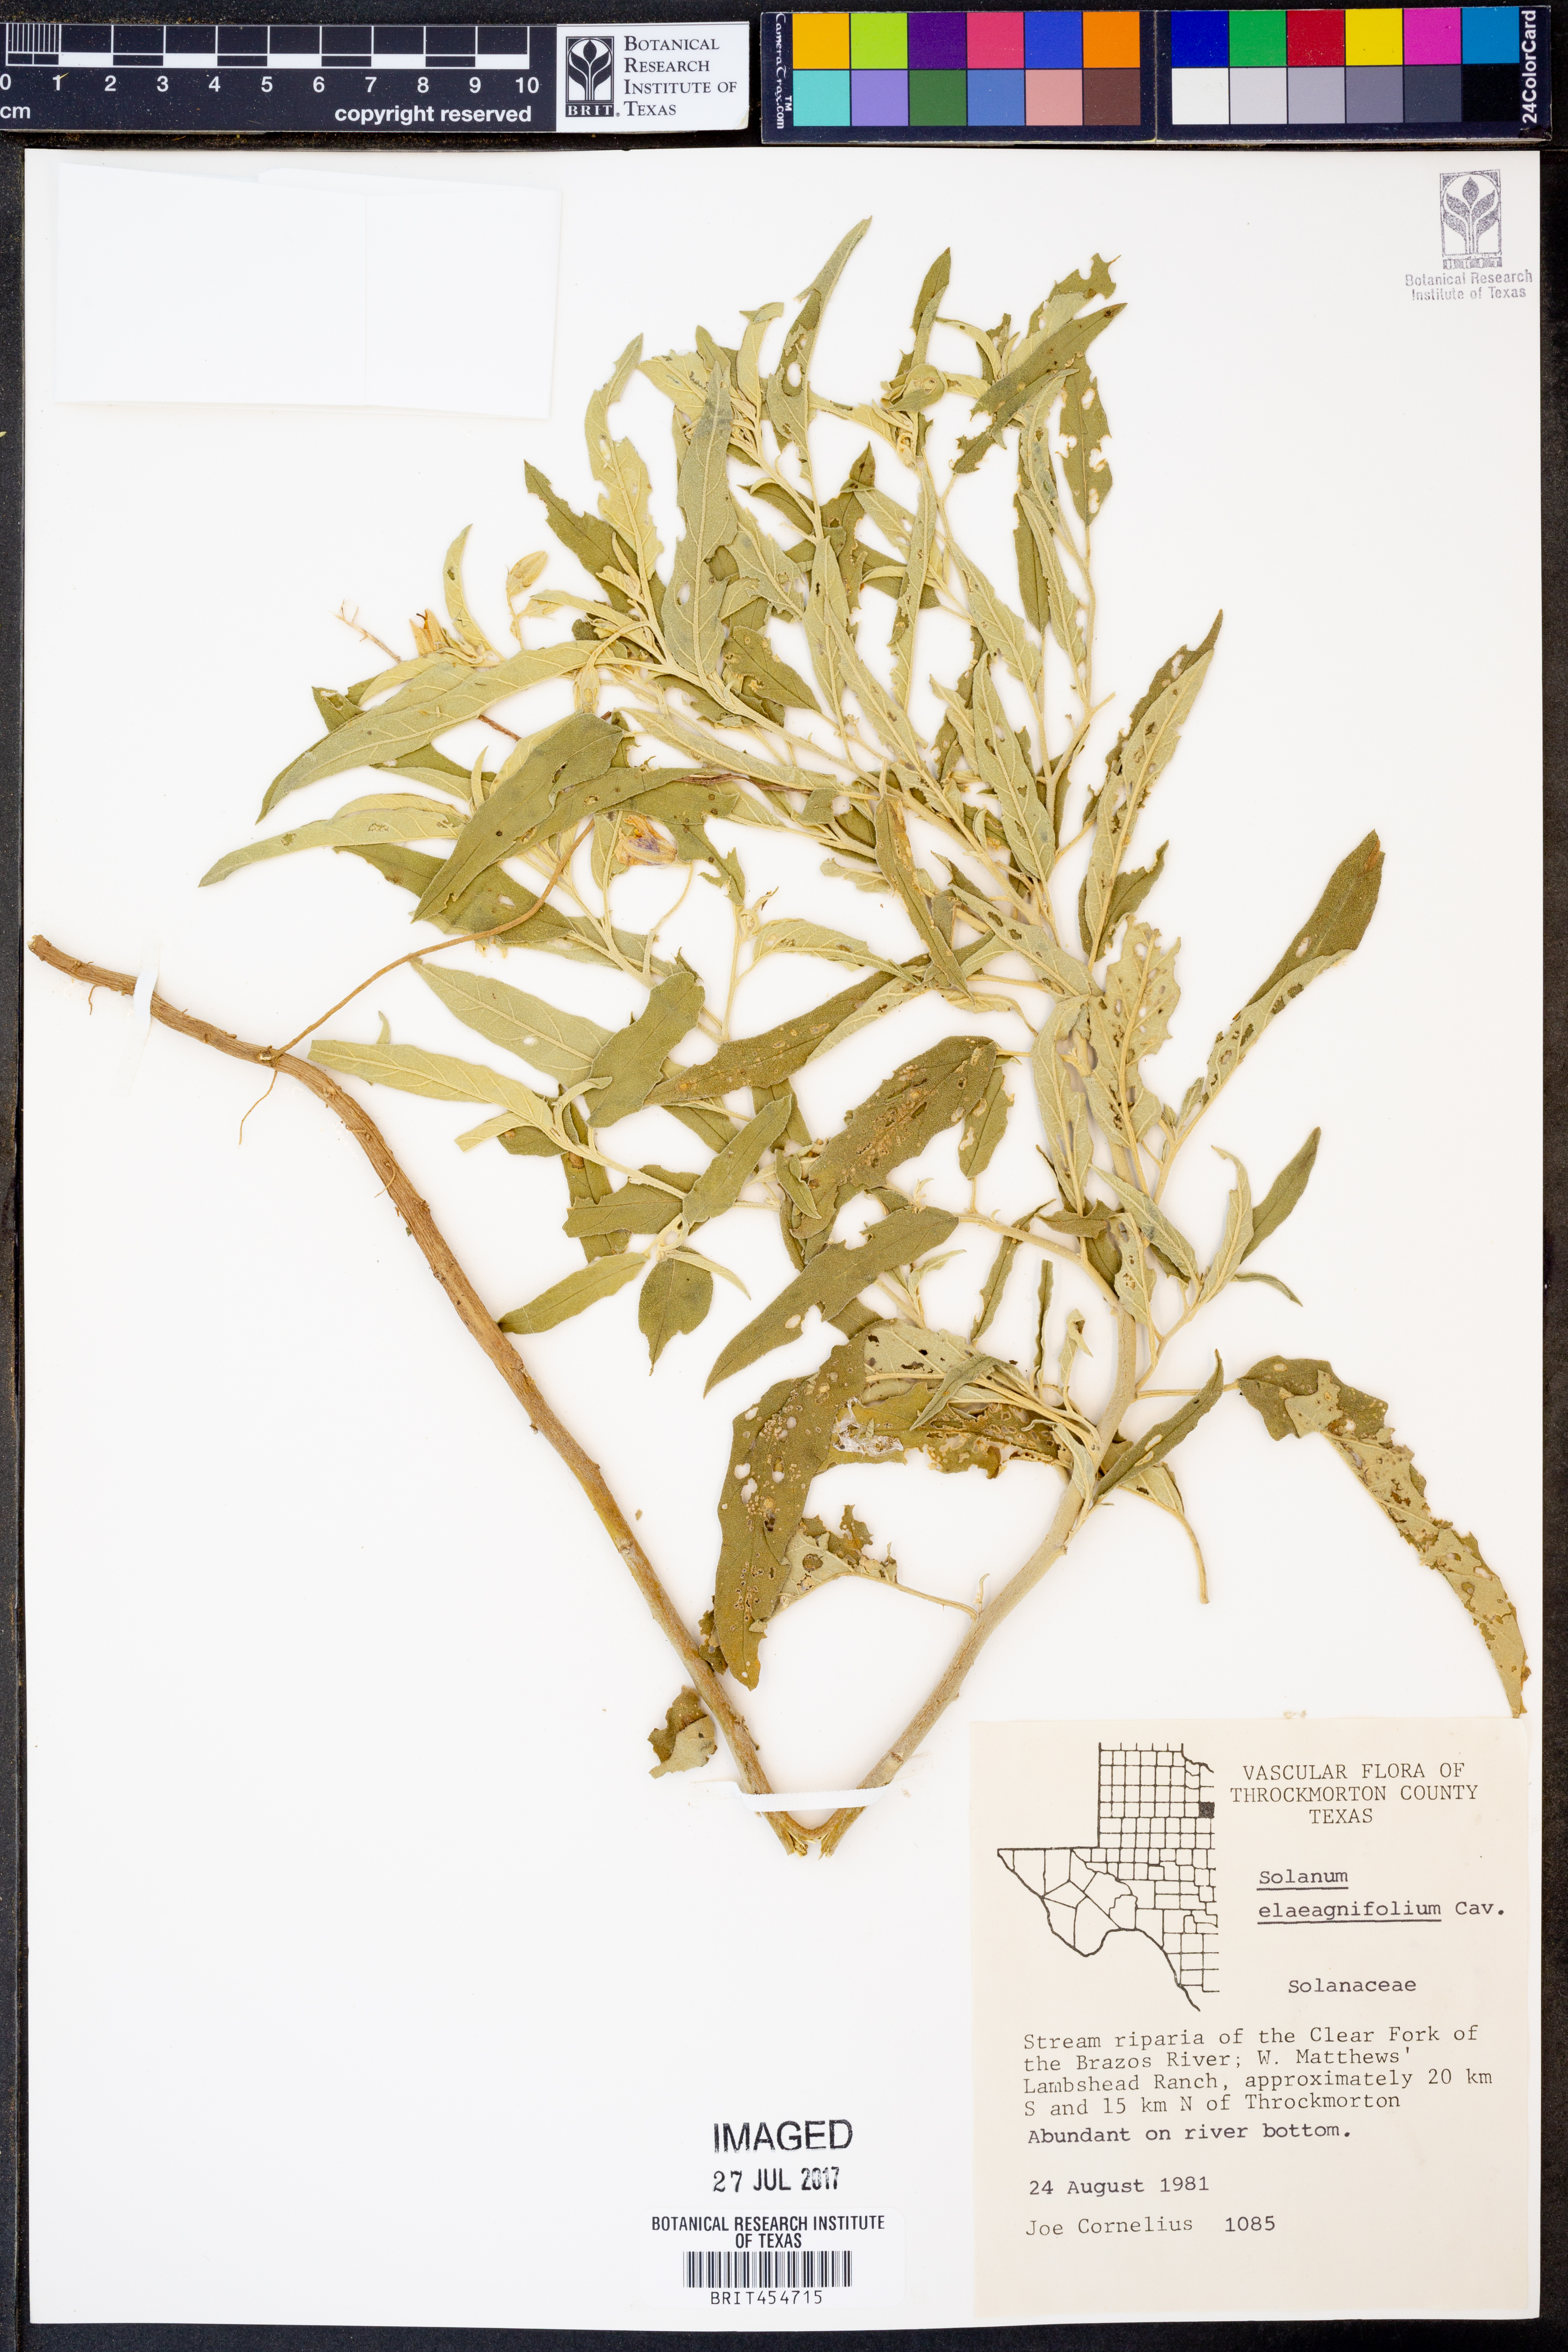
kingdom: Plantae
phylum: Tracheophyta
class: Magnoliopsida
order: Solanales
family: Solanaceae
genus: Solanum
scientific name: Solanum elaeagnifolium
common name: Silverleaf nightshade
